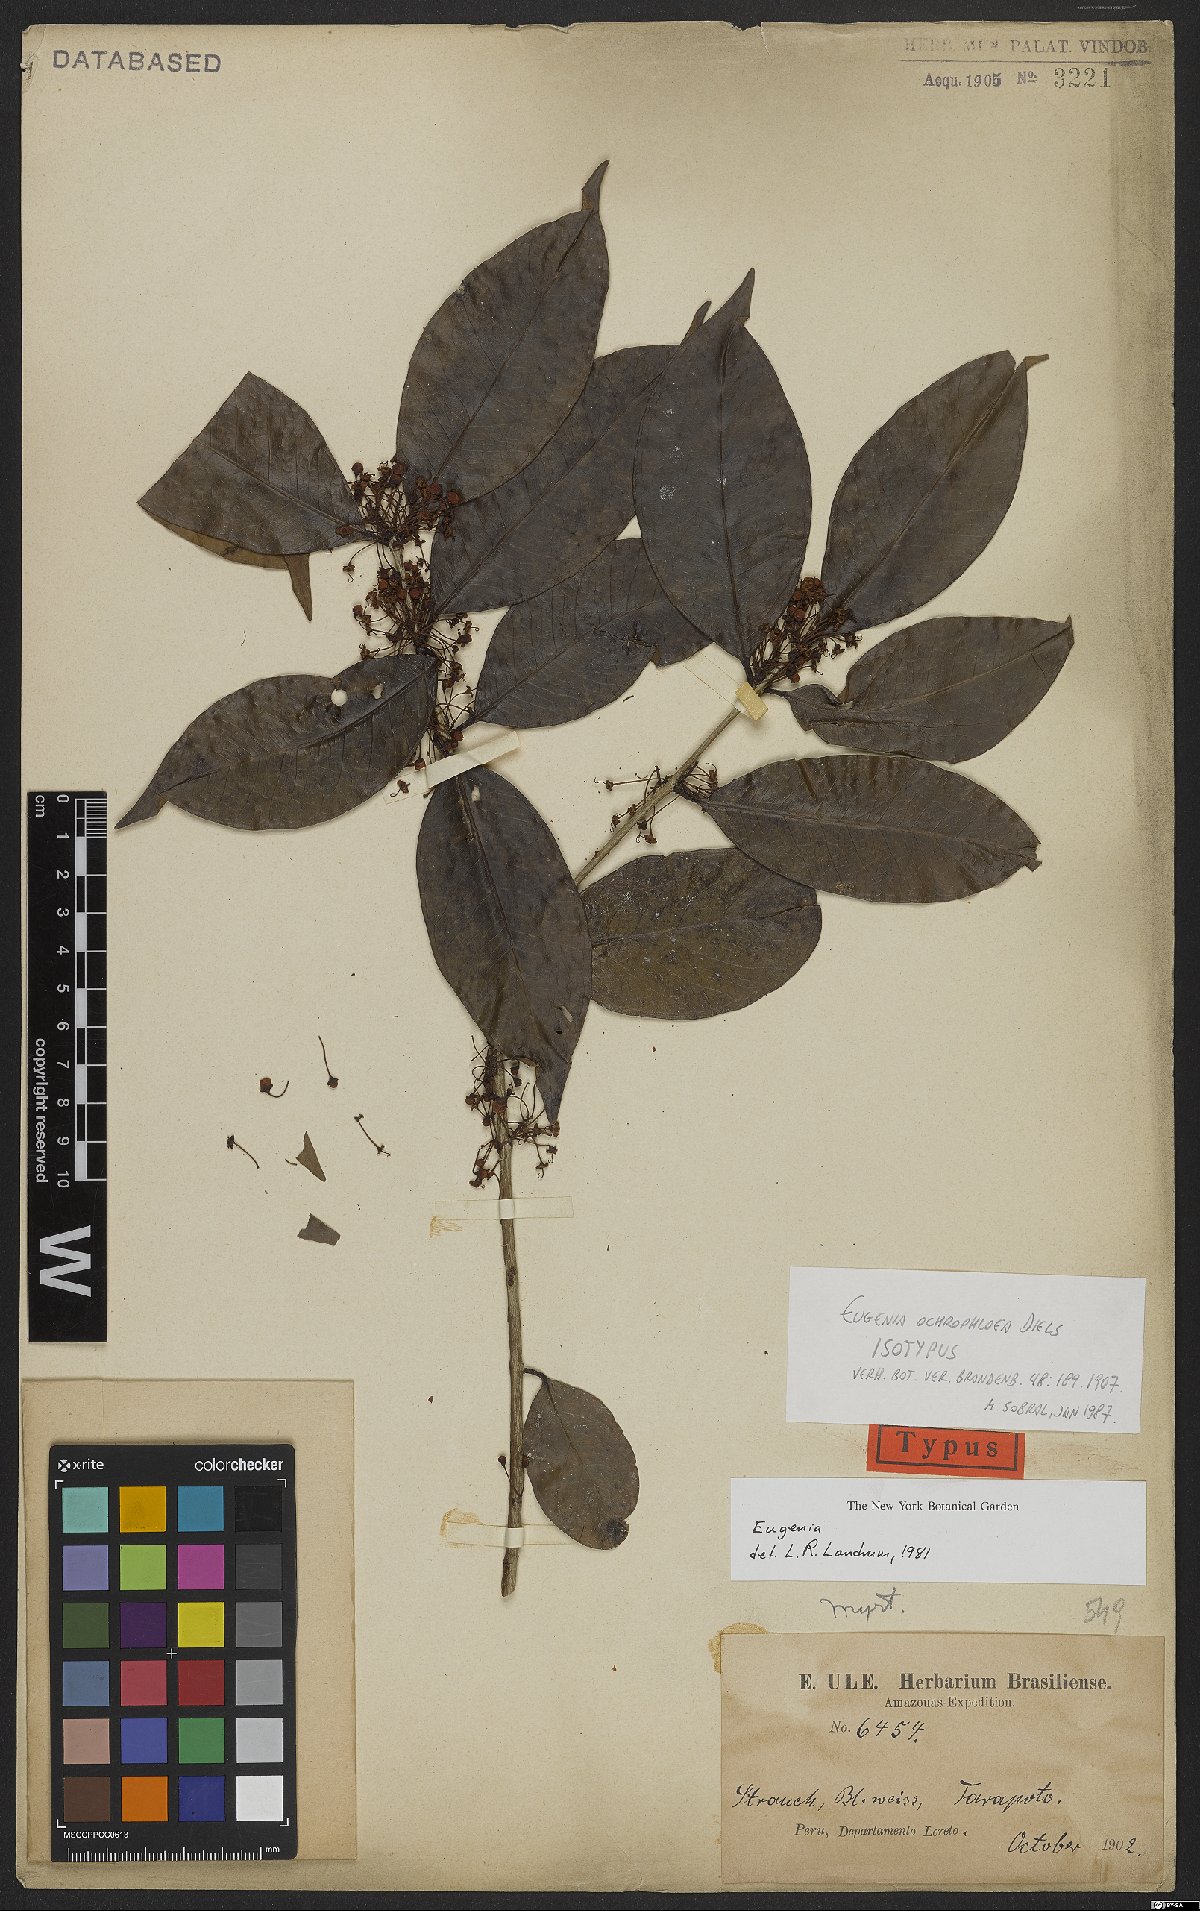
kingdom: Plantae
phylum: Tracheophyta
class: Magnoliopsida
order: Myrtales
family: Myrtaceae
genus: Eugenia
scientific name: Eugenia ochrophloea
